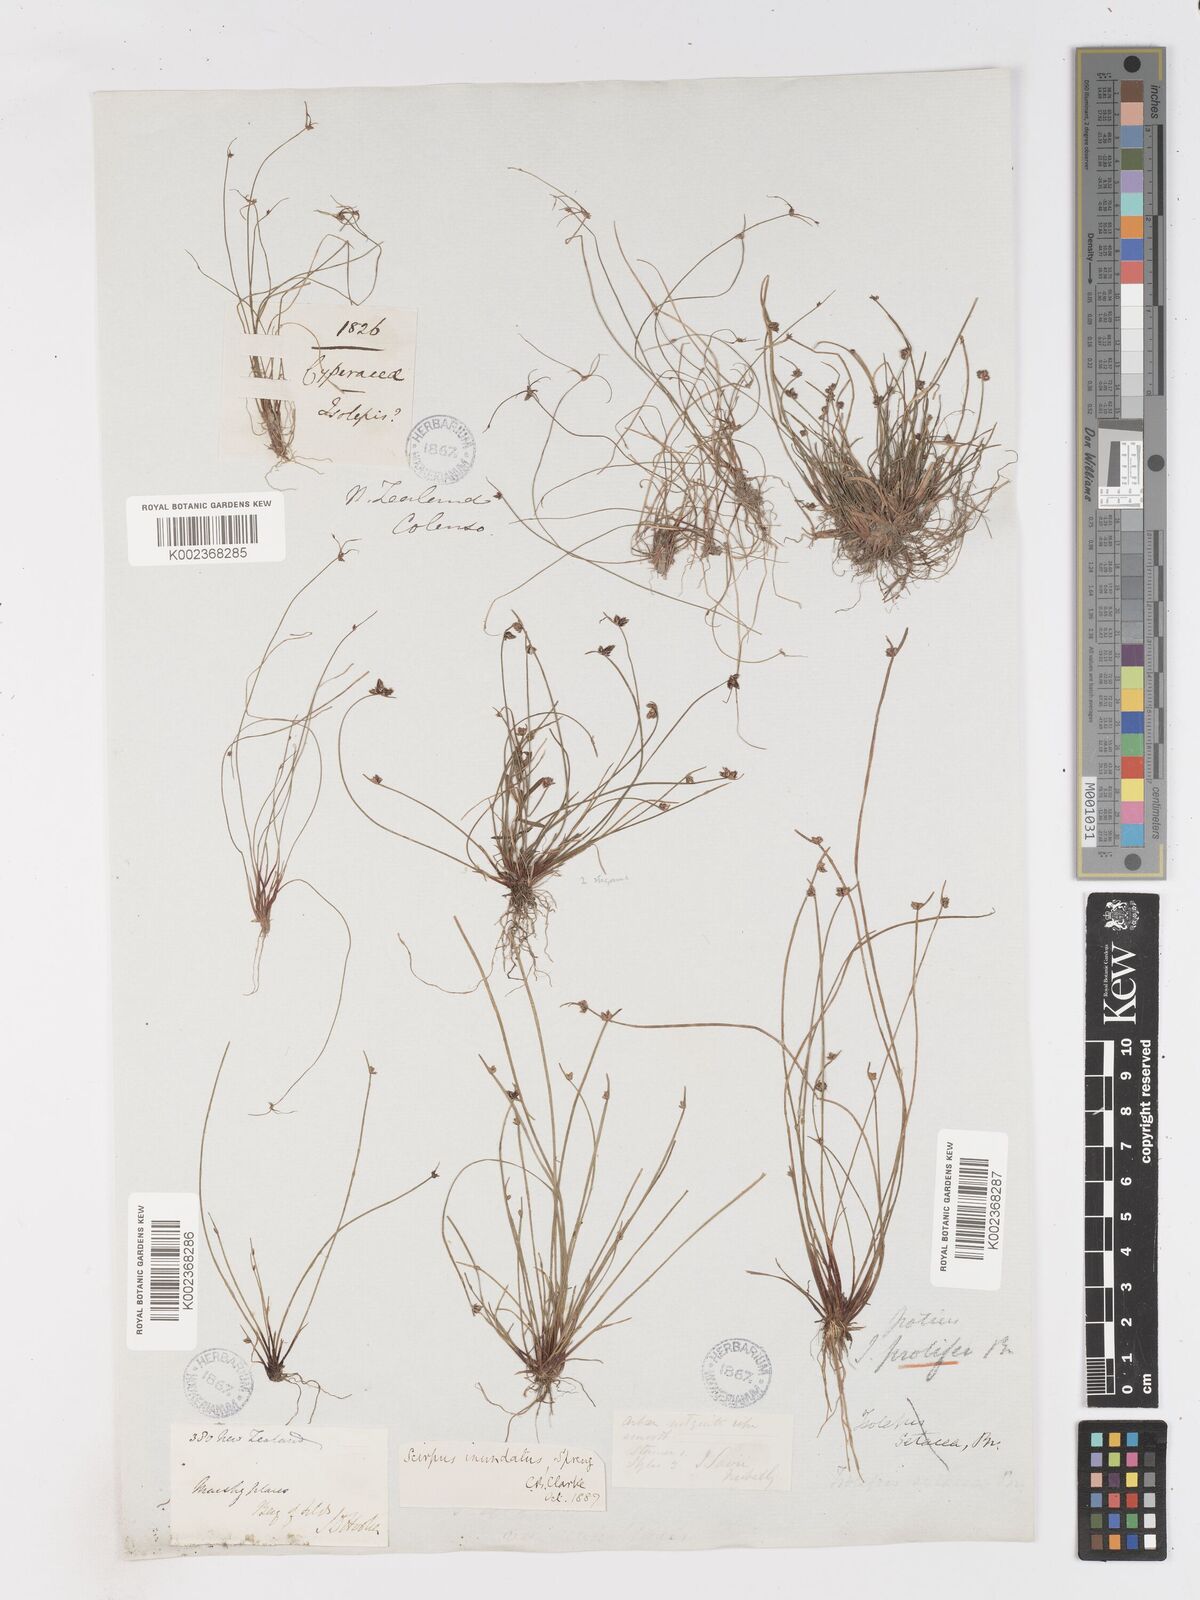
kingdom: Plantae
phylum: Tracheophyta
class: Liliopsida
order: Poales
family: Cyperaceae
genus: Isolepis
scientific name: Isolepis inundata
